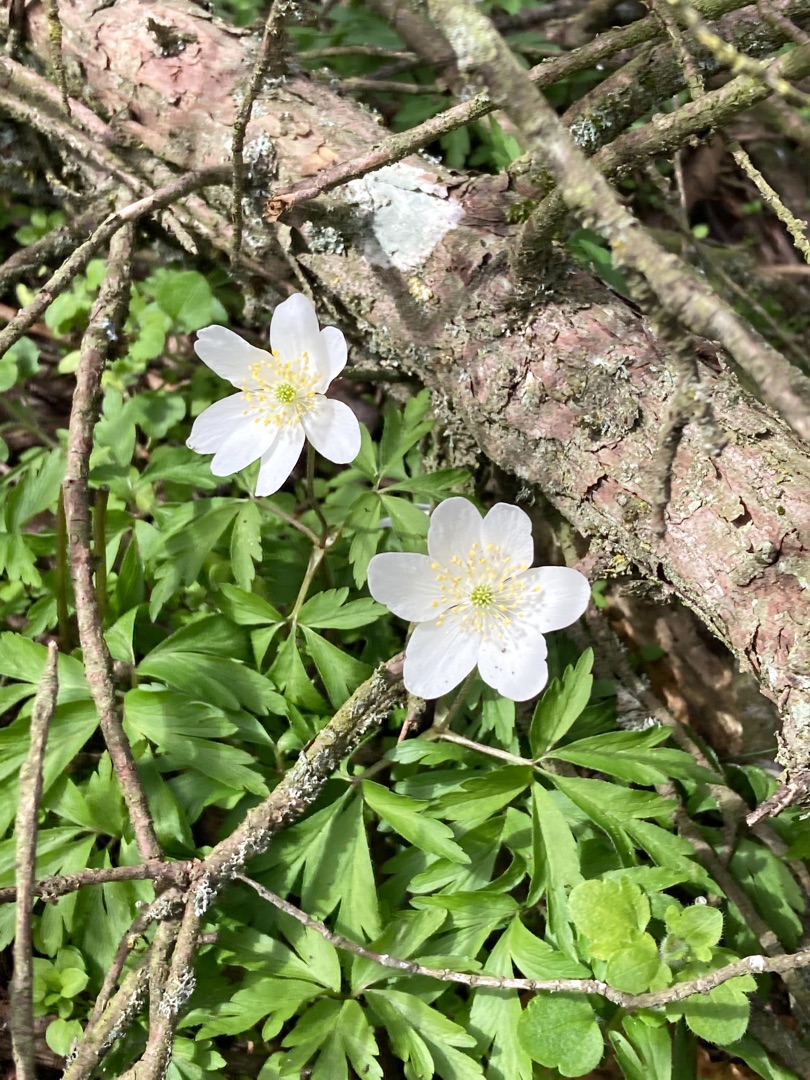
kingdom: Plantae
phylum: Tracheophyta
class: Magnoliopsida
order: Ranunculales
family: Ranunculaceae
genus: Anemone
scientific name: Anemone nemorosa
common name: Hvid anemone
